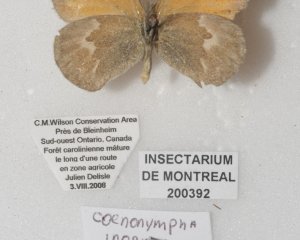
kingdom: Animalia
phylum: Arthropoda
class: Insecta
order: Lepidoptera
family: Nymphalidae
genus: Coenonympha
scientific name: Coenonympha tullia
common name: Large Heath
